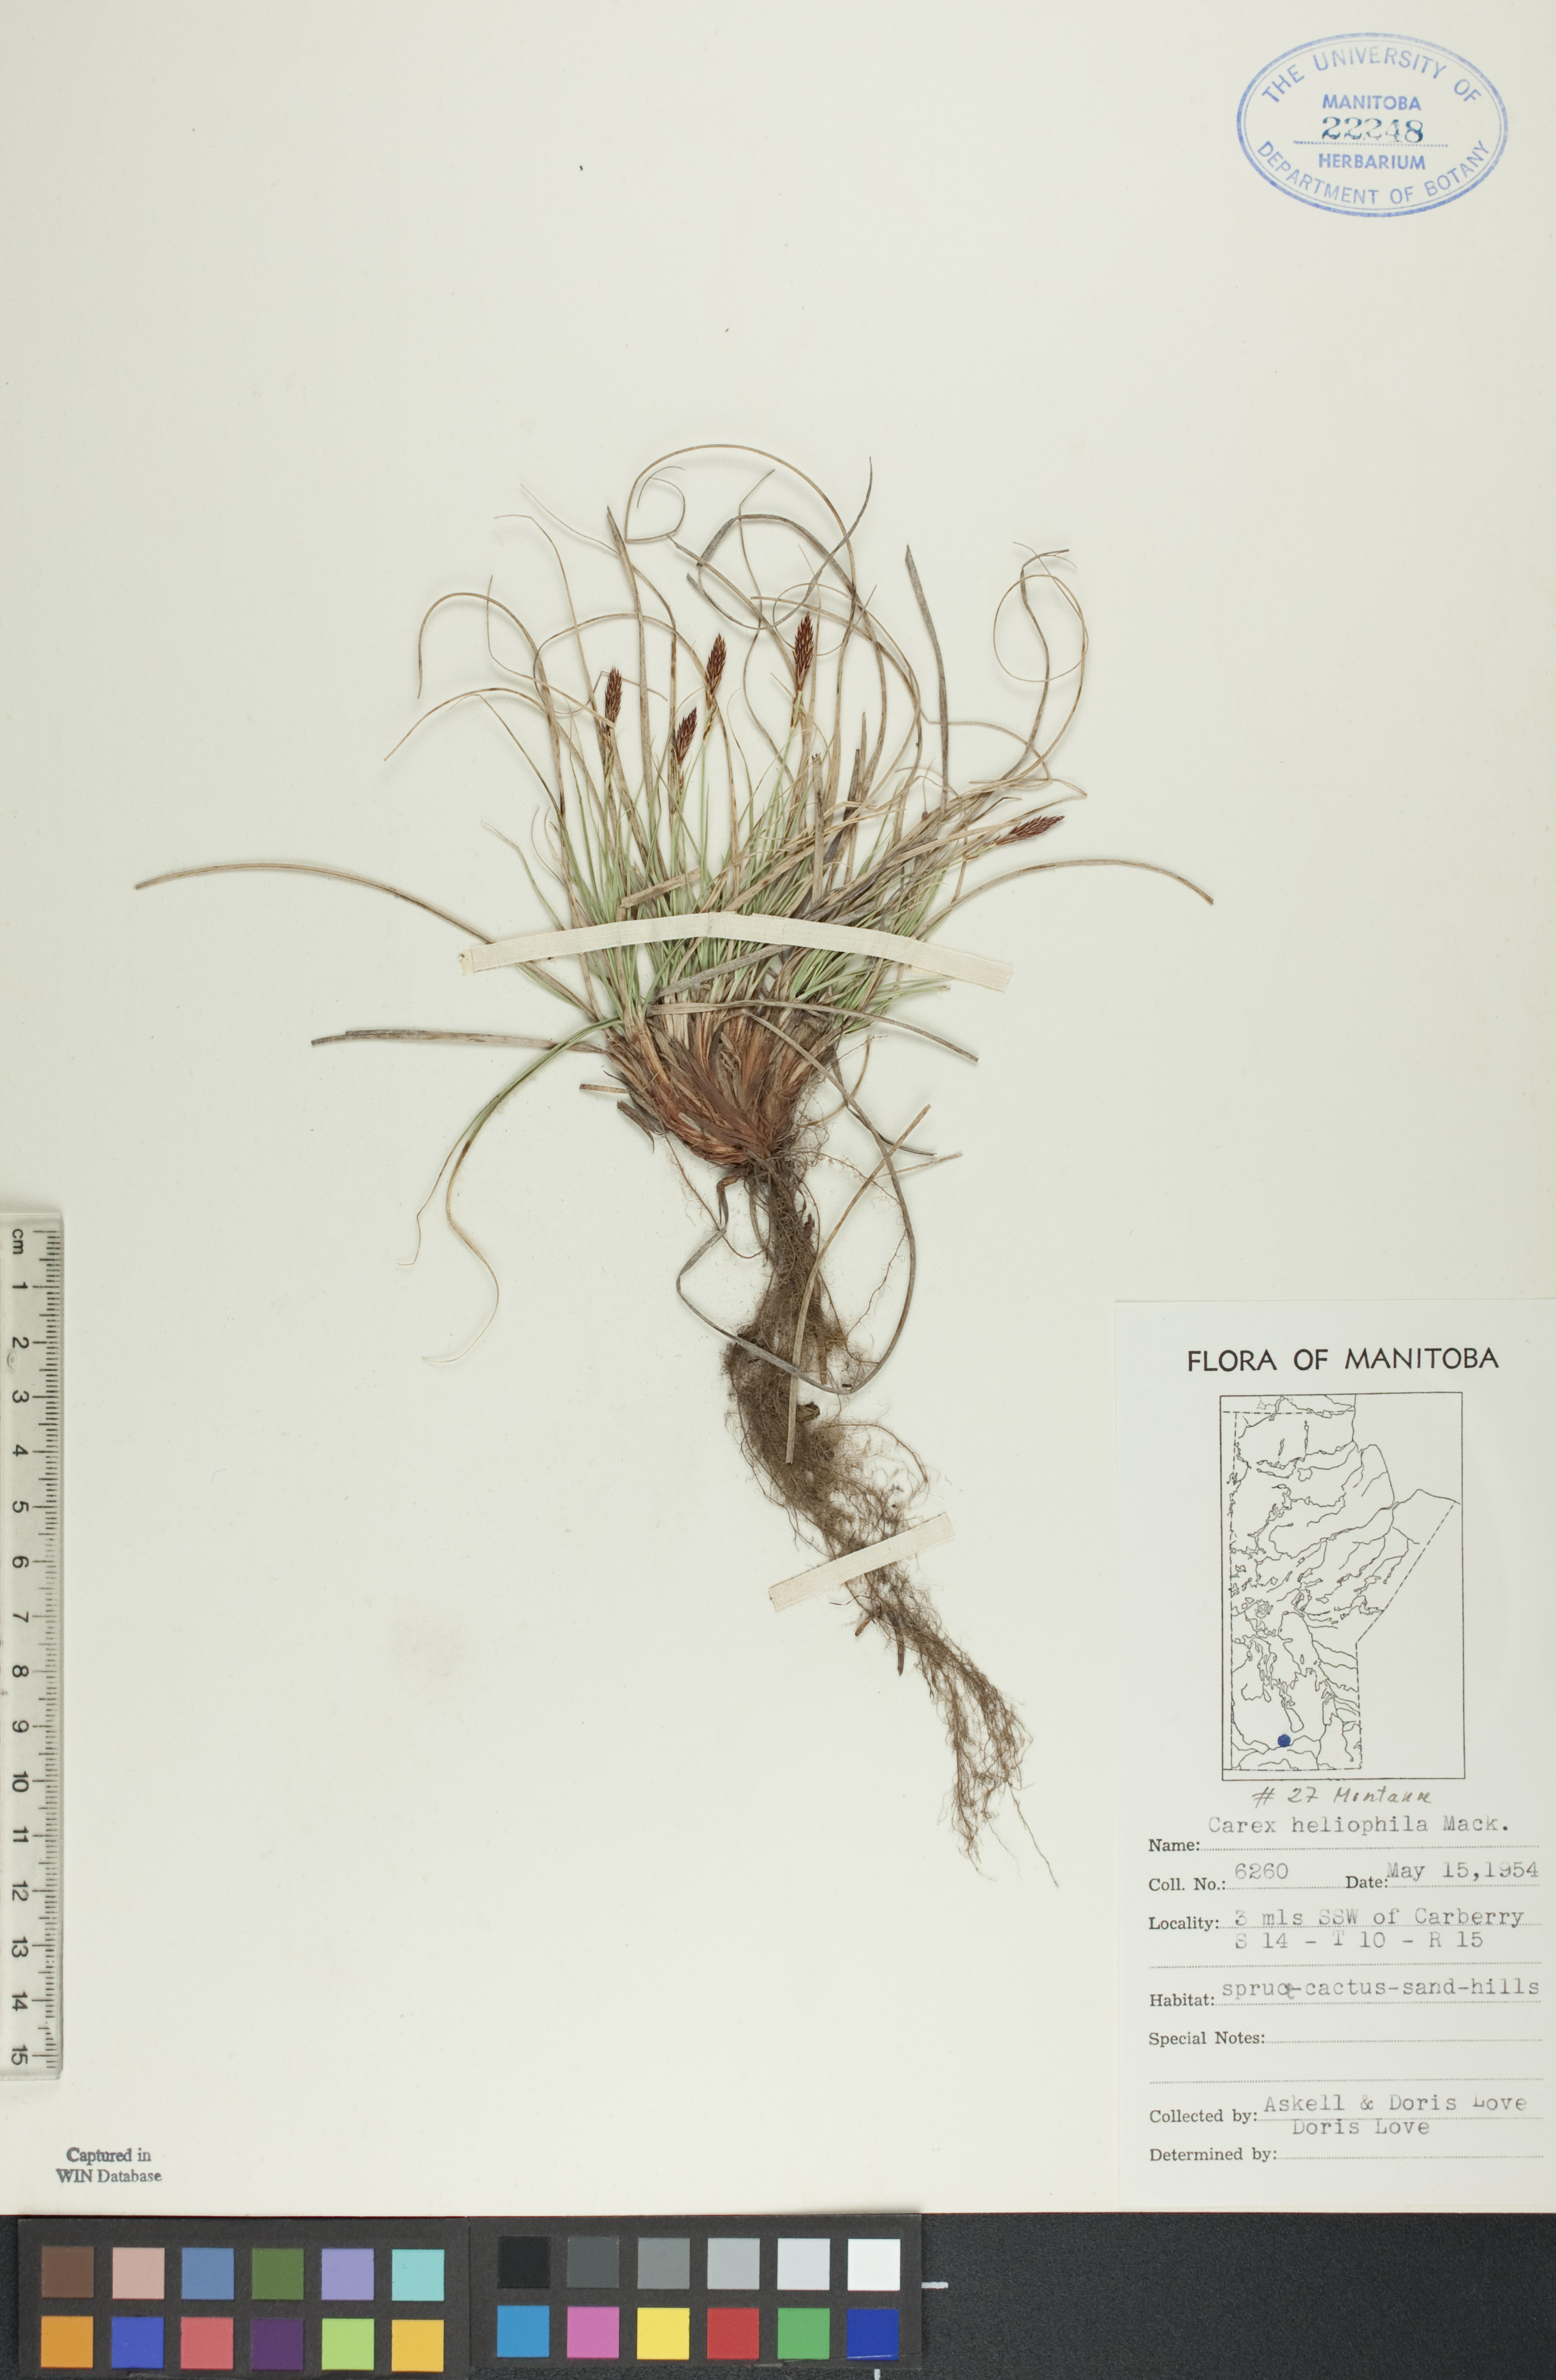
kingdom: Plantae
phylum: Tracheophyta
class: Liliopsida
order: Poales
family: Cyperaceae
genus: Carex
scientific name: Carex inops
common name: Long-stolon sedge
